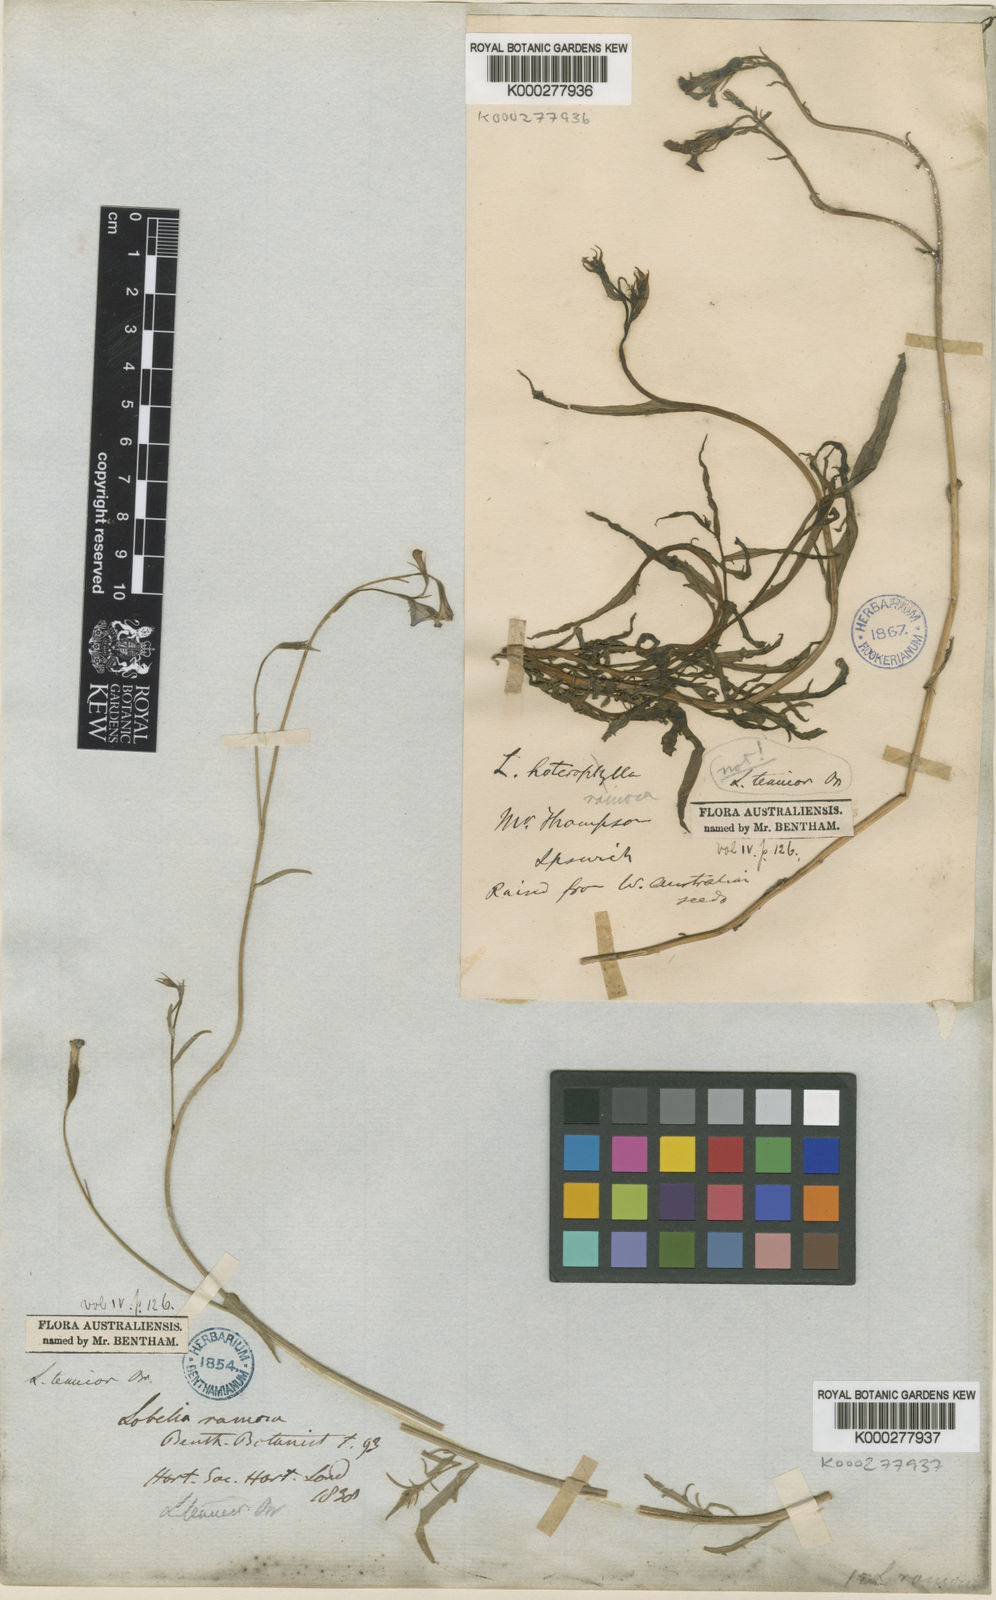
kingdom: Plantae
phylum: Tracheophyta
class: Magnoliopsida
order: Asterales
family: Campanulaceae
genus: Lobelia
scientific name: Lobelia tenuior
